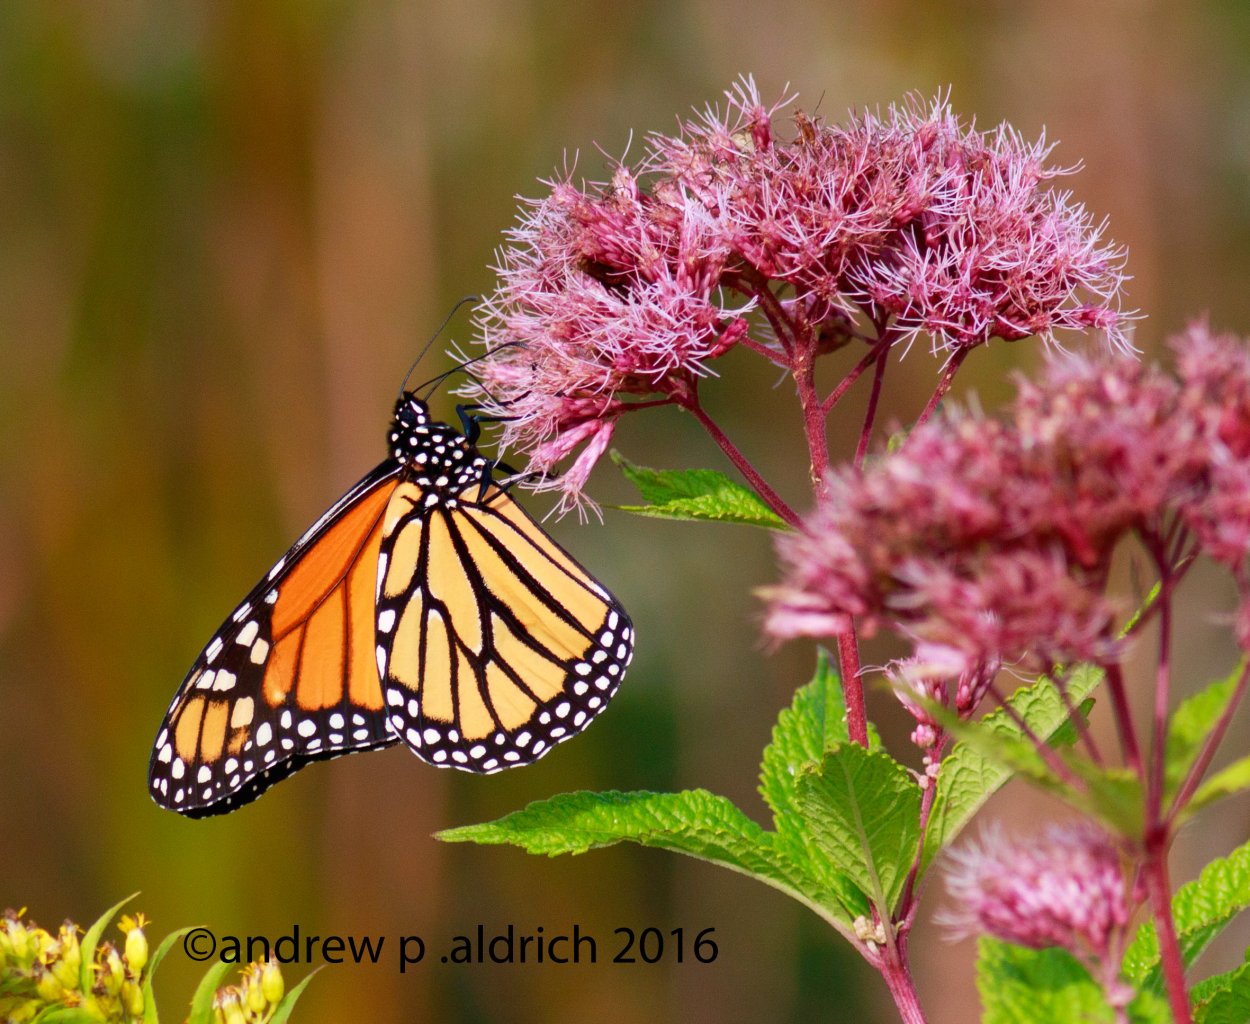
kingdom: Animalia
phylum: Arthropoda
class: Insecta
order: Lepidoptera
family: Nymphalidae
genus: Danaus
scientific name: Danaus plexippus
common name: Monarch
